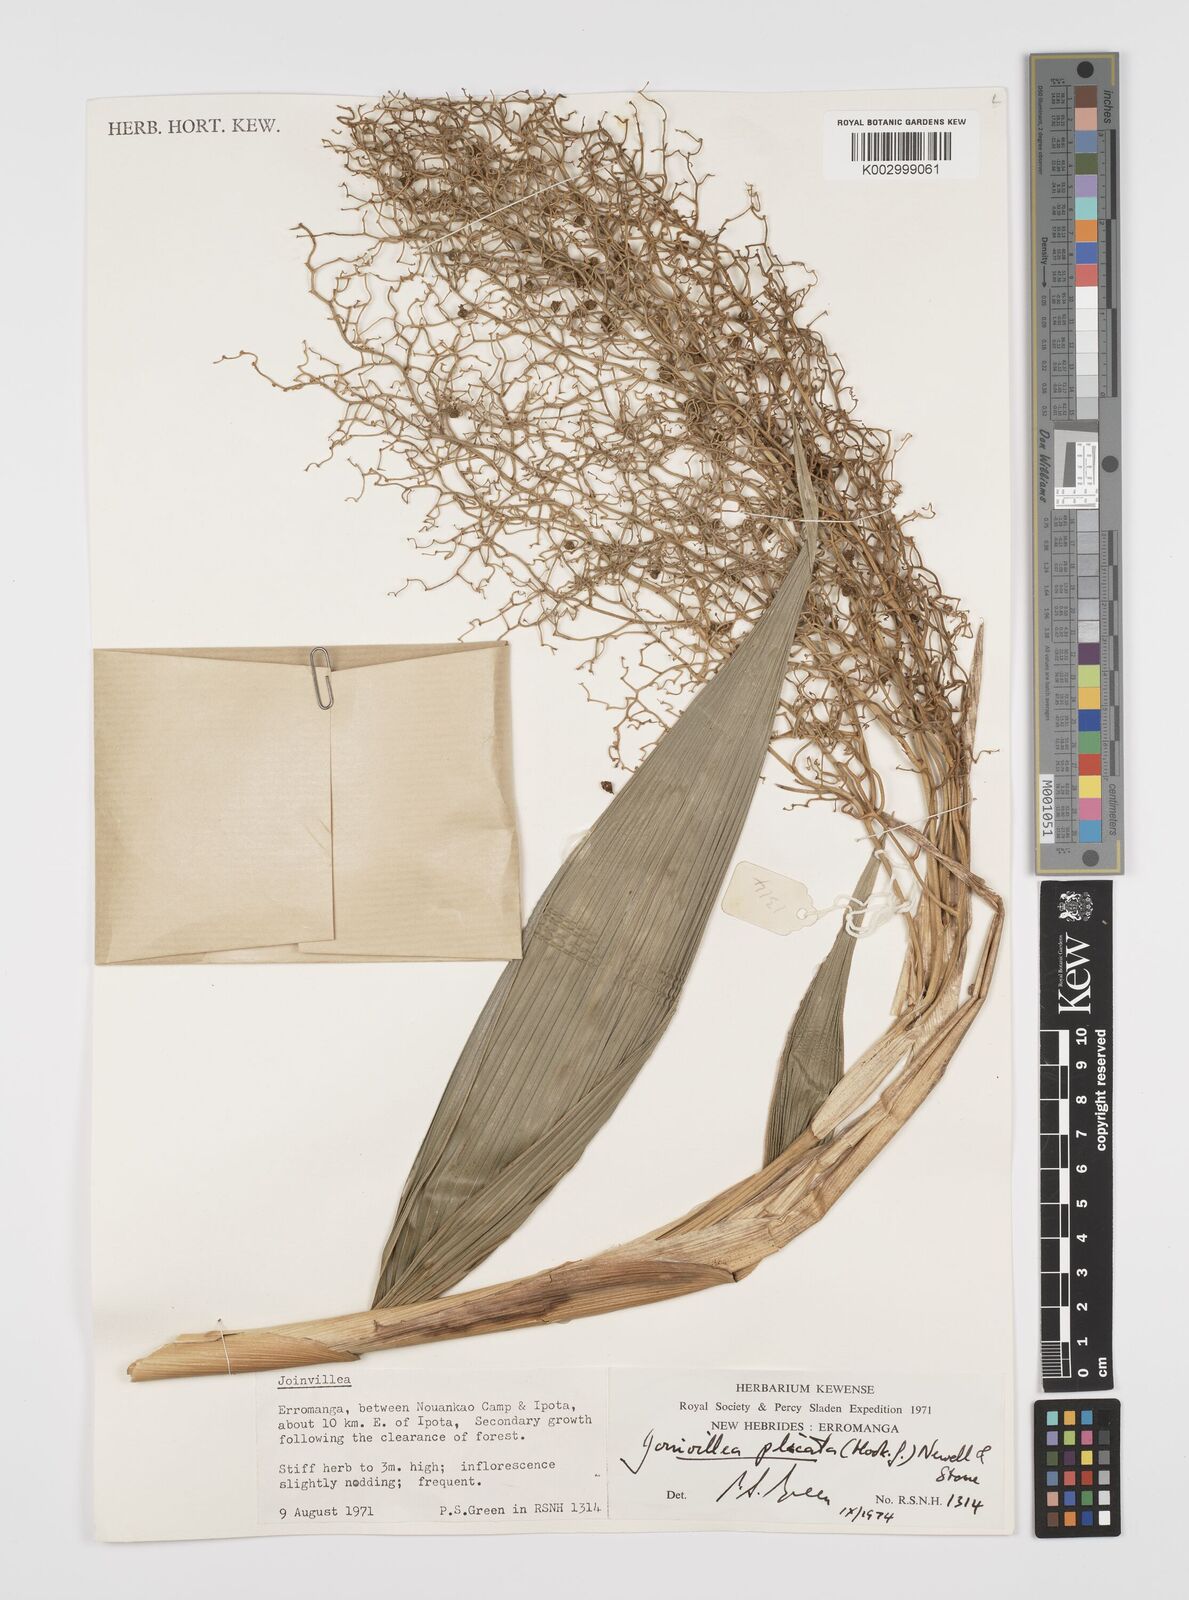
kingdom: Plantae
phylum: Tracheophyta
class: Liliopsida
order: Poales
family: Joinvilleaceae
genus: Joinvillea
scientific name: Joinvillea plicata
